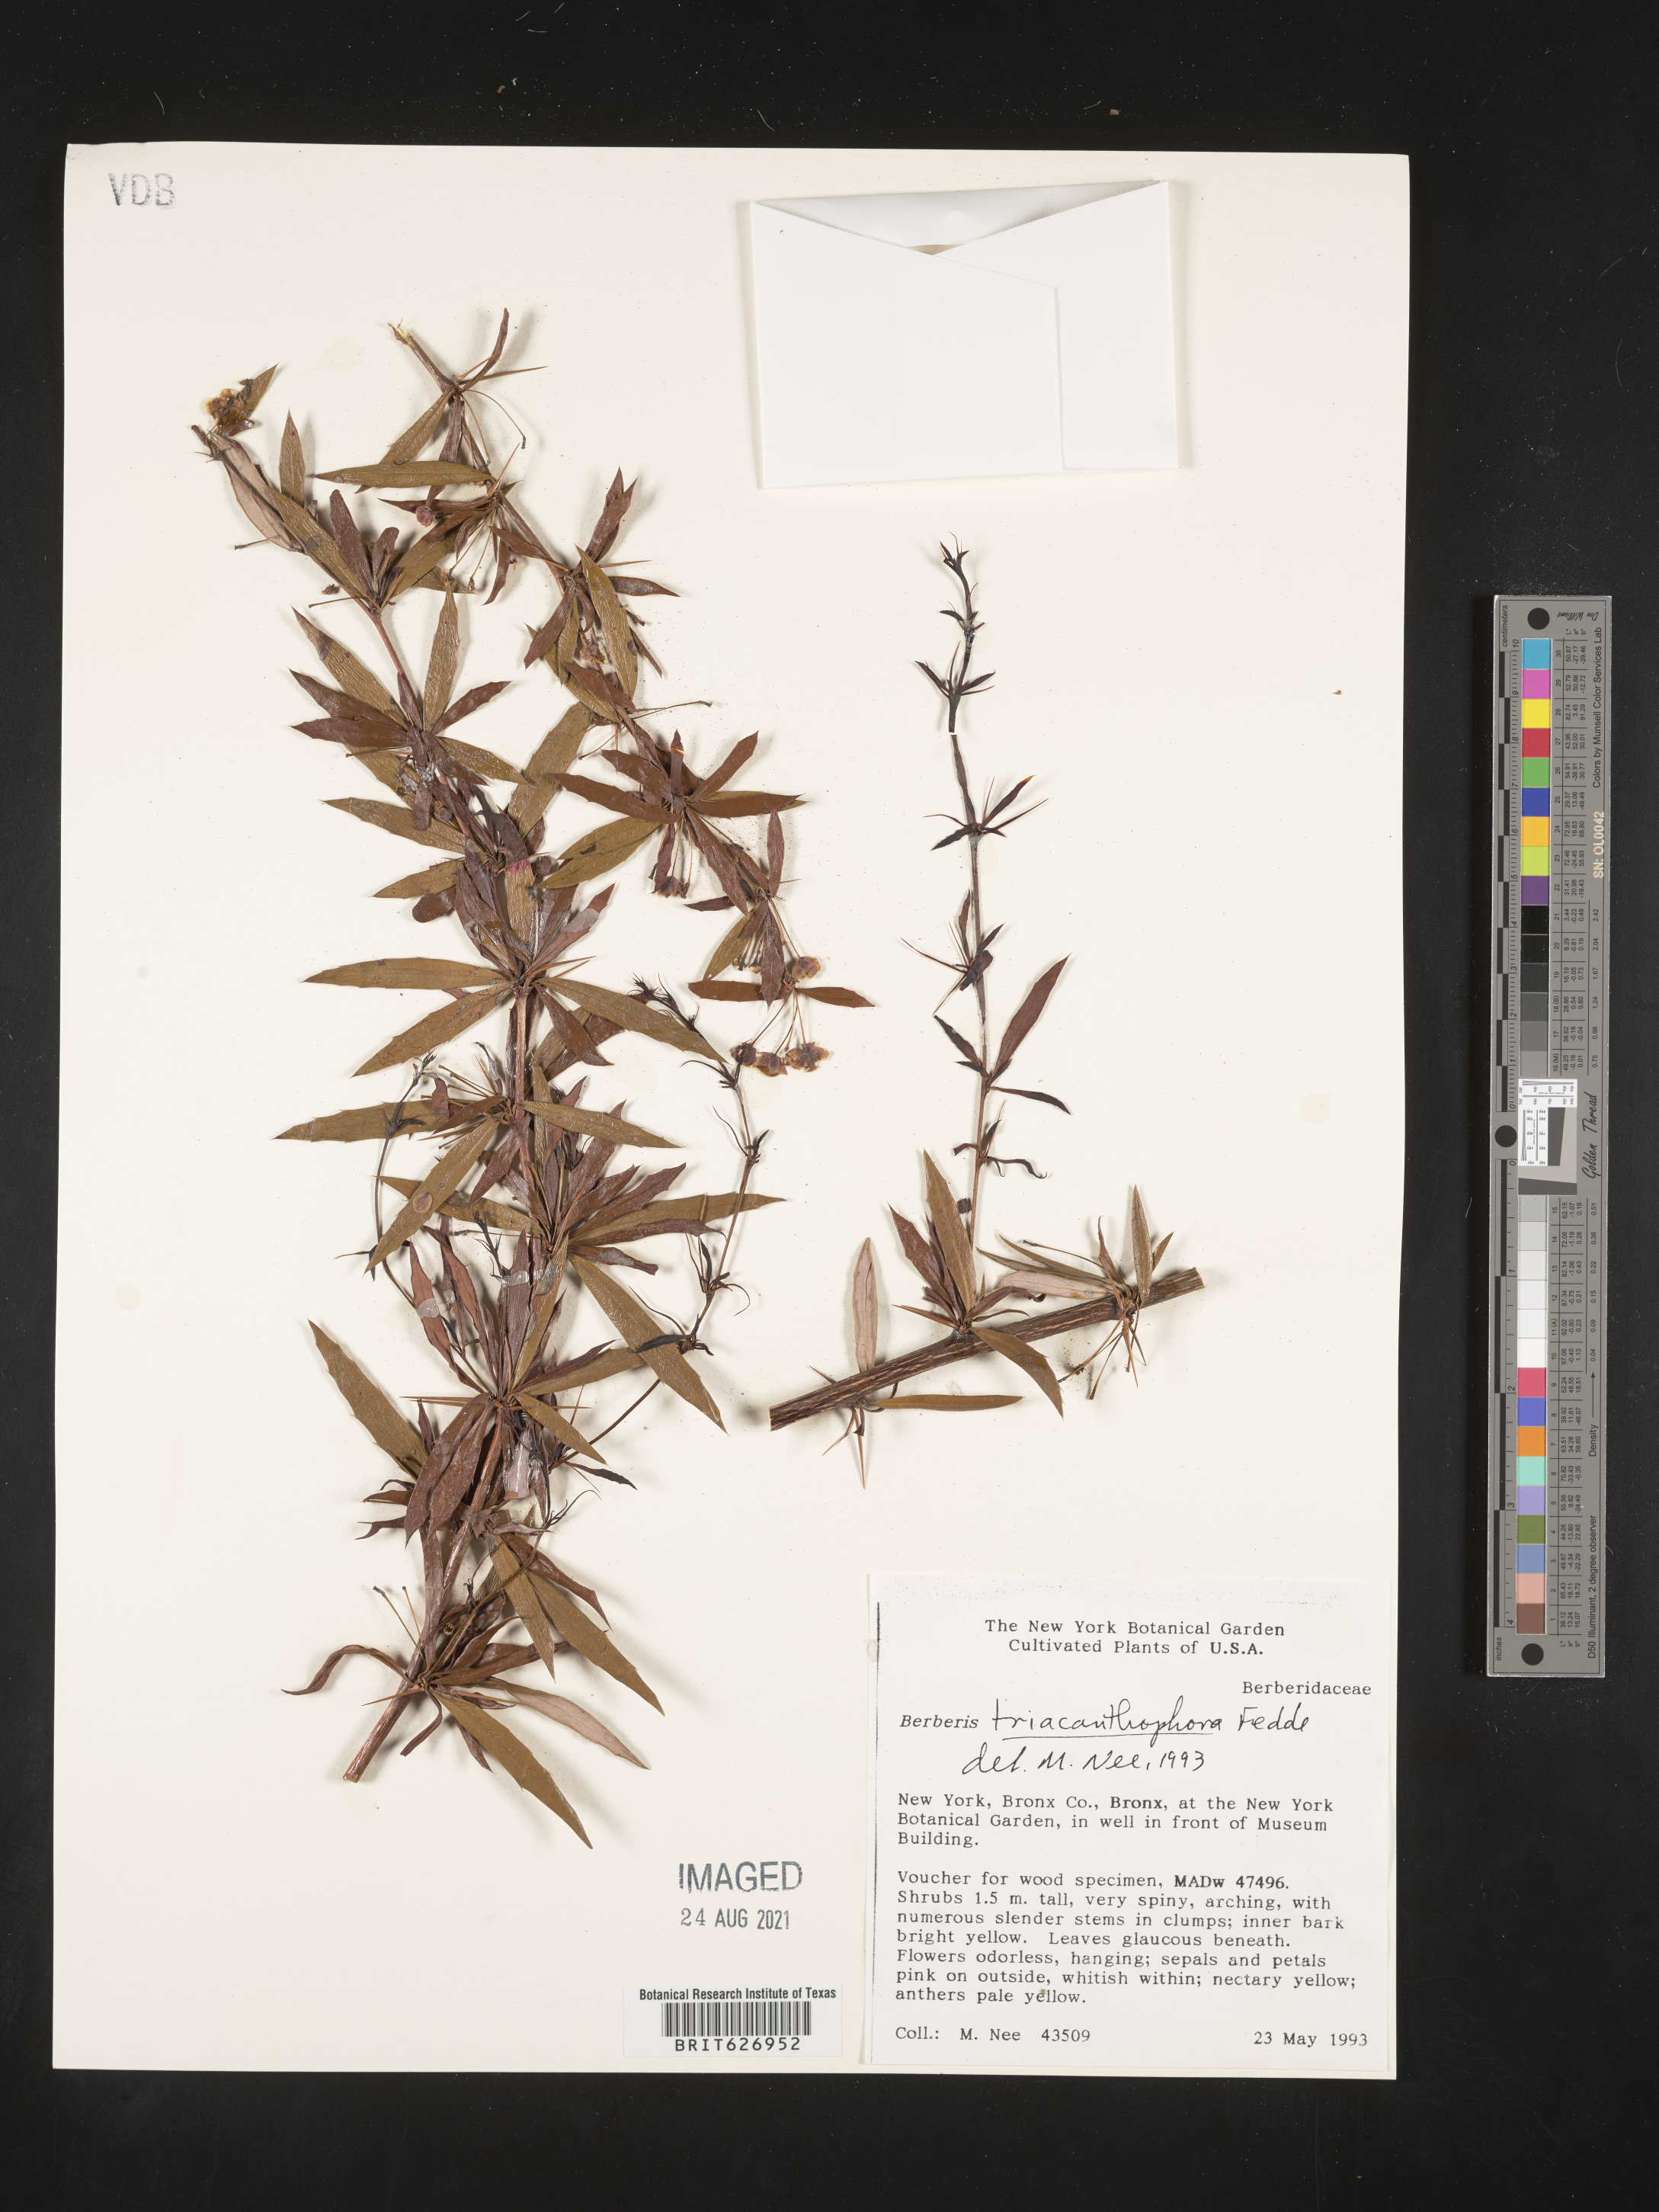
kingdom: Plantae
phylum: Tracheophyta
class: Magnoliopsida
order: Ranunculales
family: Berberidaceae
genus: Berberis
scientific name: Berberis triacanthophora
